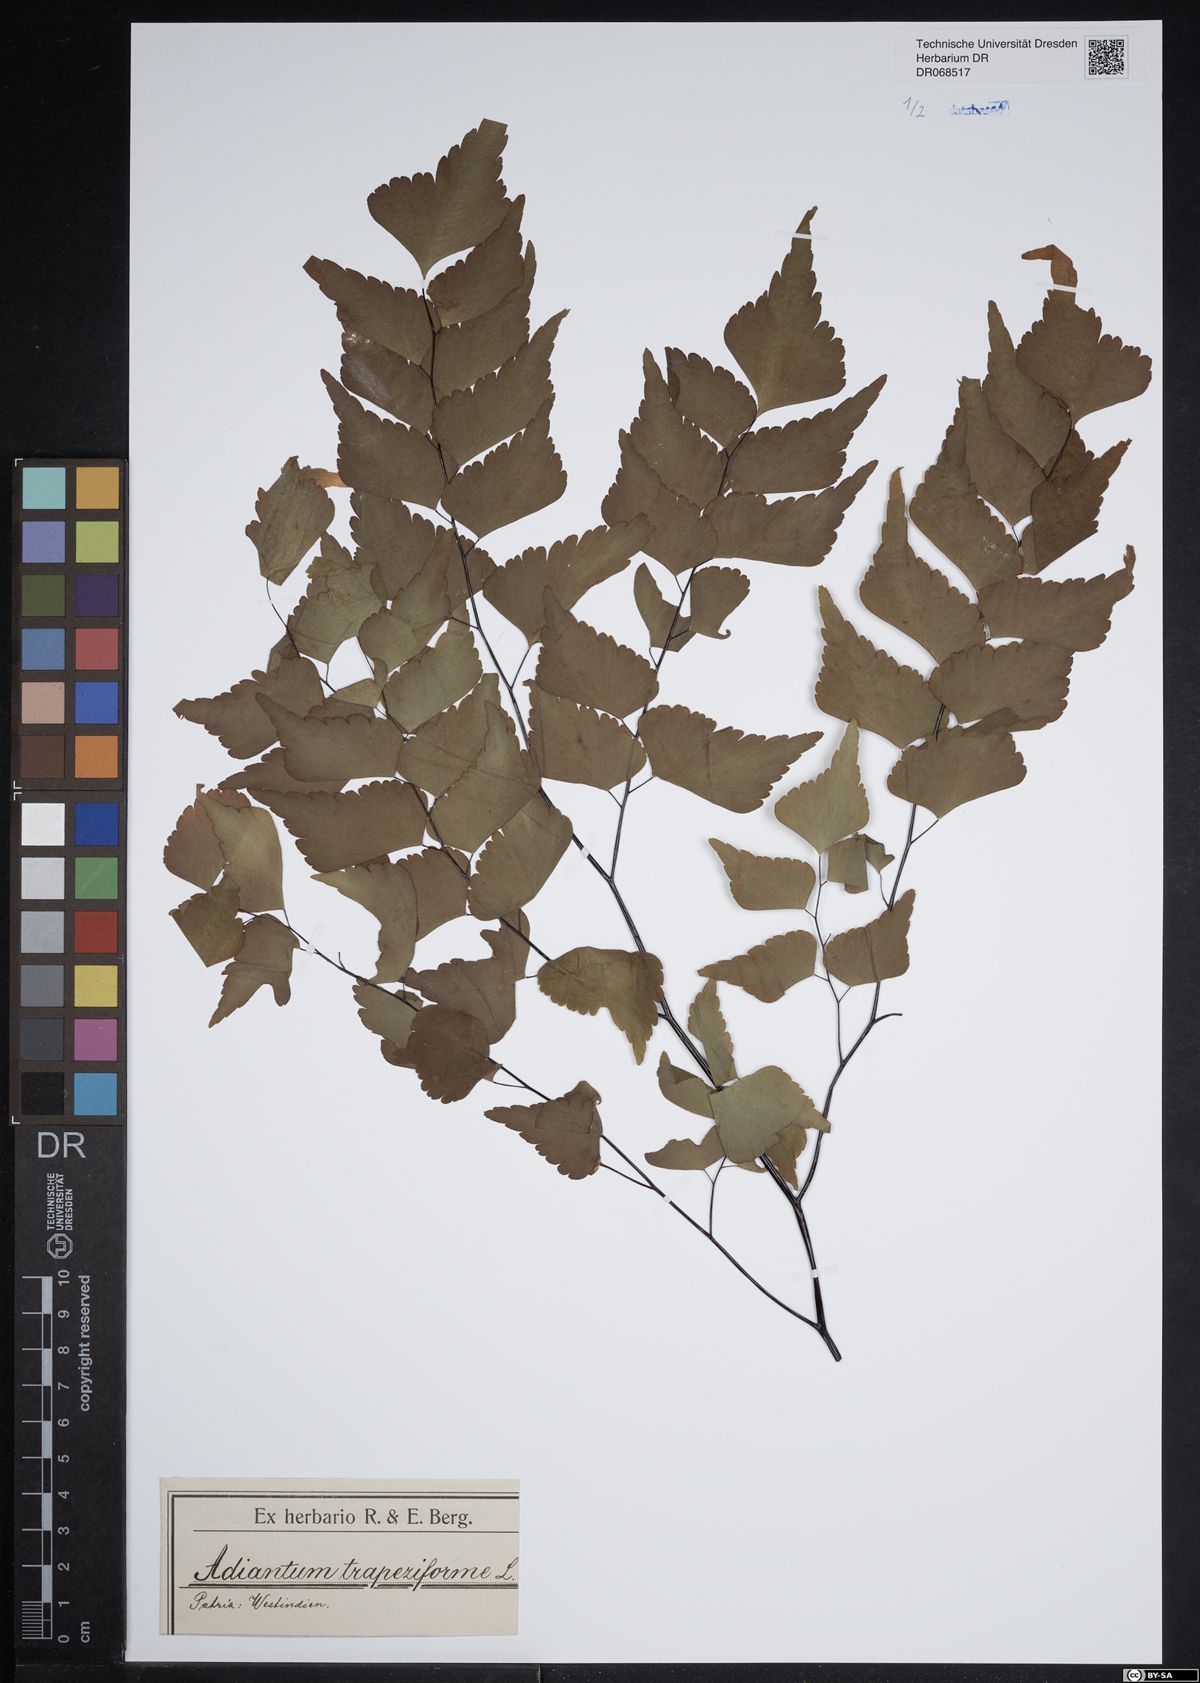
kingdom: Plantae
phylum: Tracheophyta
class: Polypodiopsida
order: Polypodiales
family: Pteridaceae
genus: Adiantum
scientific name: Adiantum trapeziforme
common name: Diamond maidenhair
